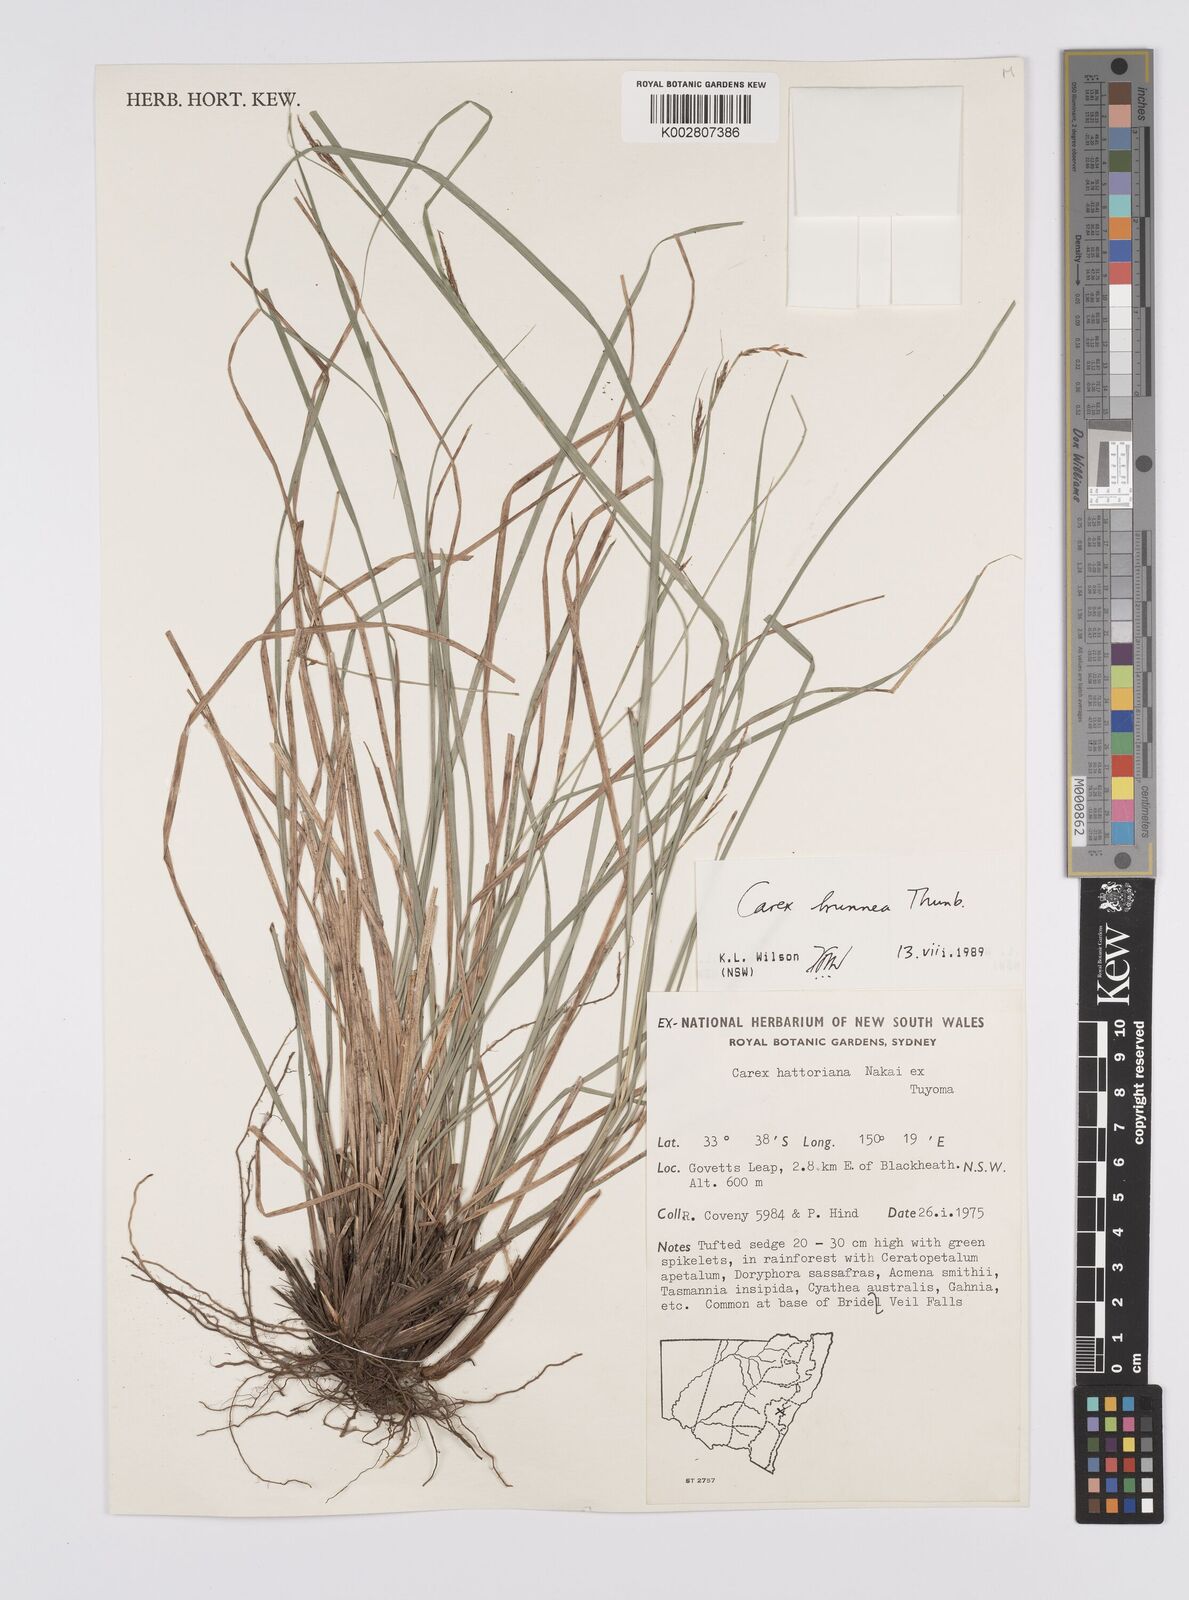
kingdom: Plantae
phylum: Tracheophyta
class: Liliopsida
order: Poales
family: Cyperaceae
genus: Carex
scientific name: Carex brunnea
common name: Greater brown sedge
